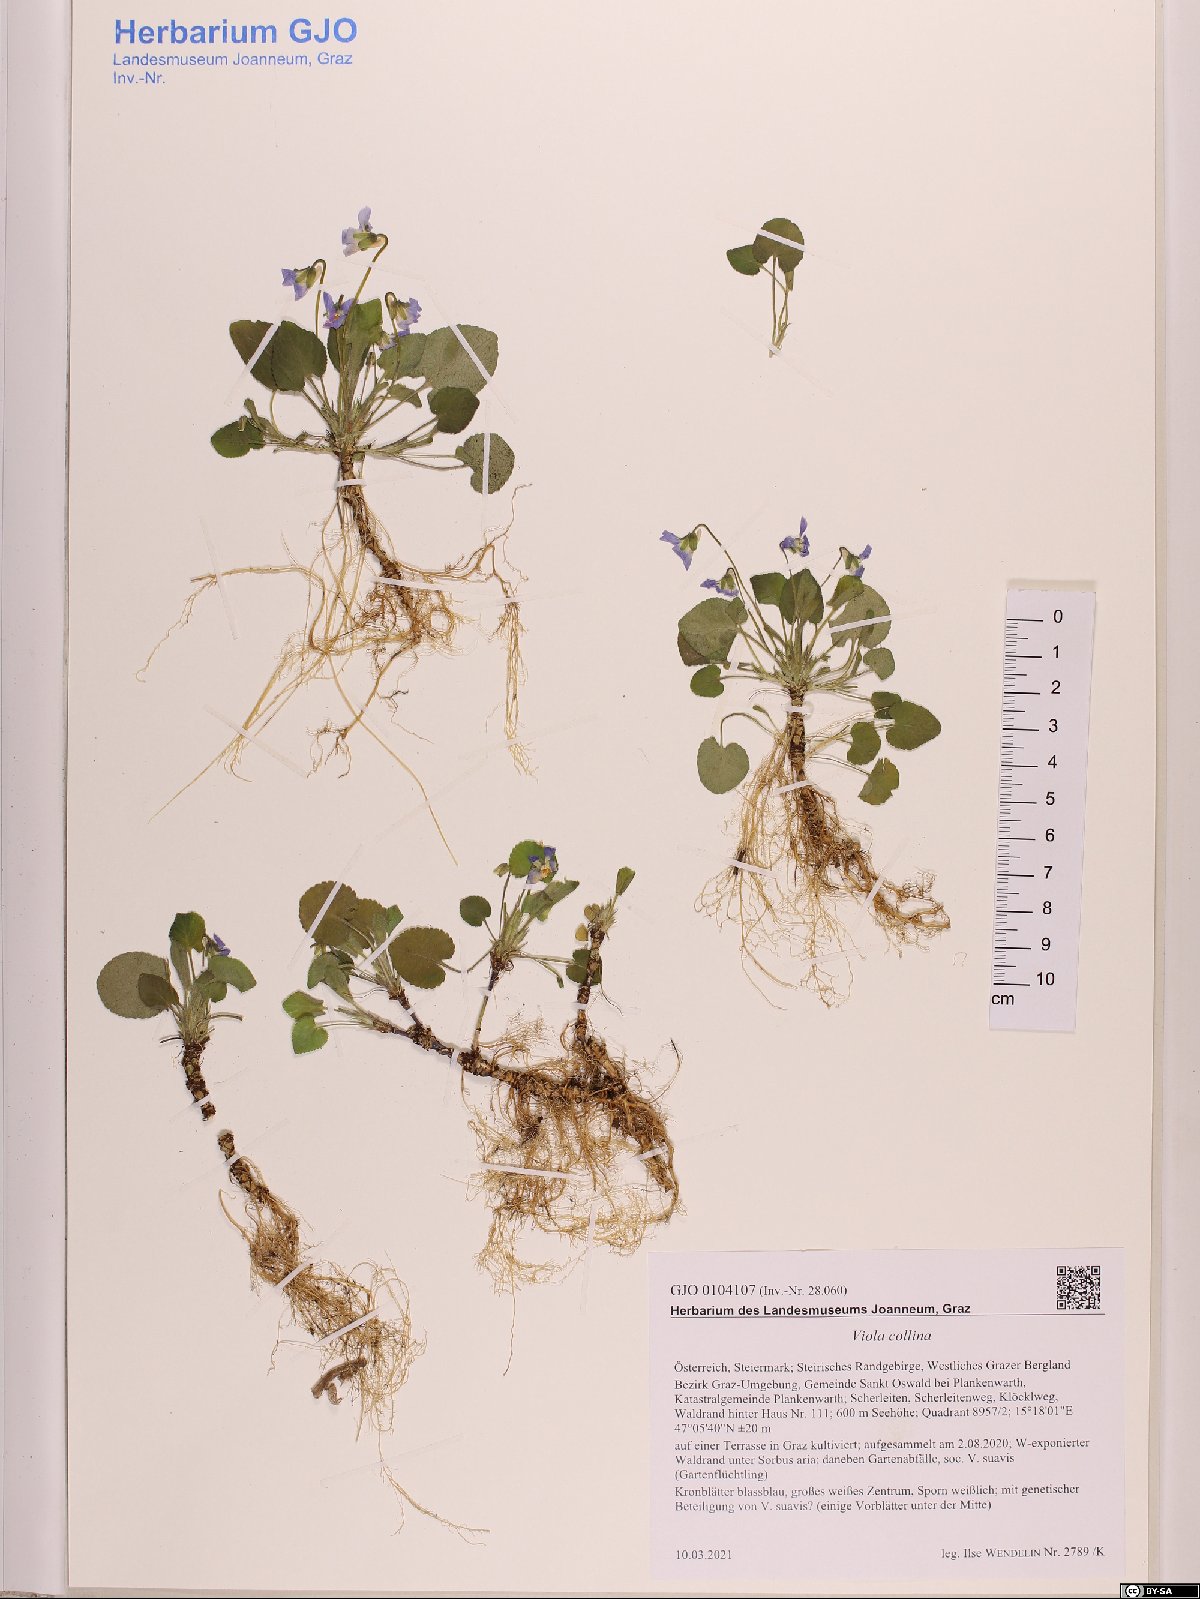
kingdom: Plantae
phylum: Tracheophyta
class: Magnoliopsida
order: Malpighiales
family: Violaceae
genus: Viola
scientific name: Viola collina
